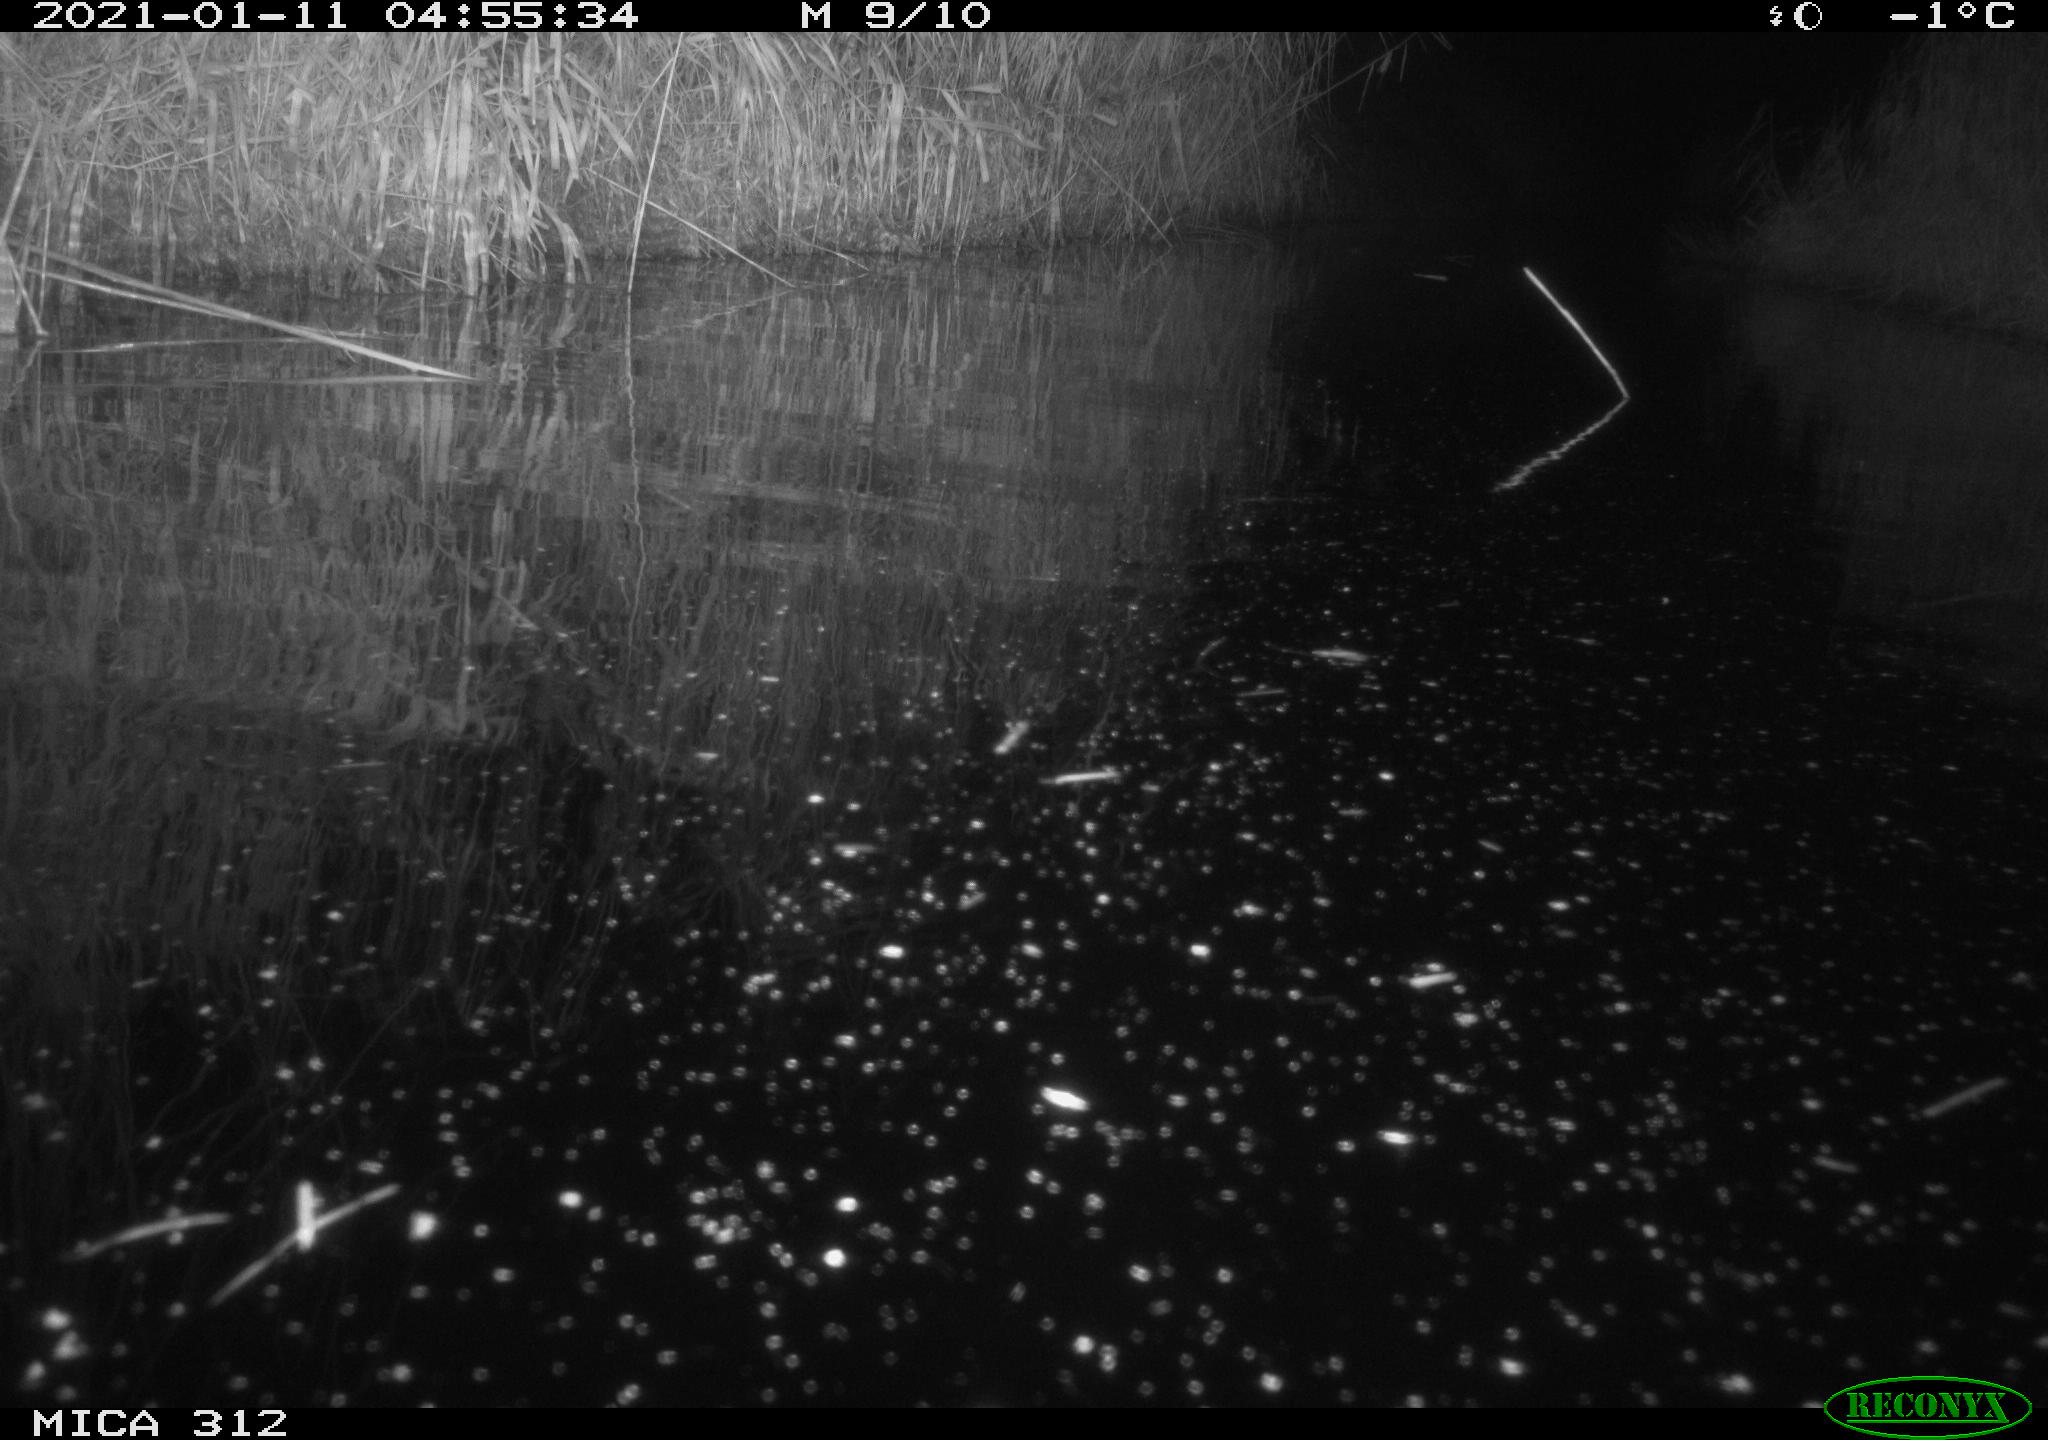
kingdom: Animalia
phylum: Chordata
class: Mammalia
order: Rodentia
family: Muridae
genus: Rattus
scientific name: Rattus norvegicus
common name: Brown rat
